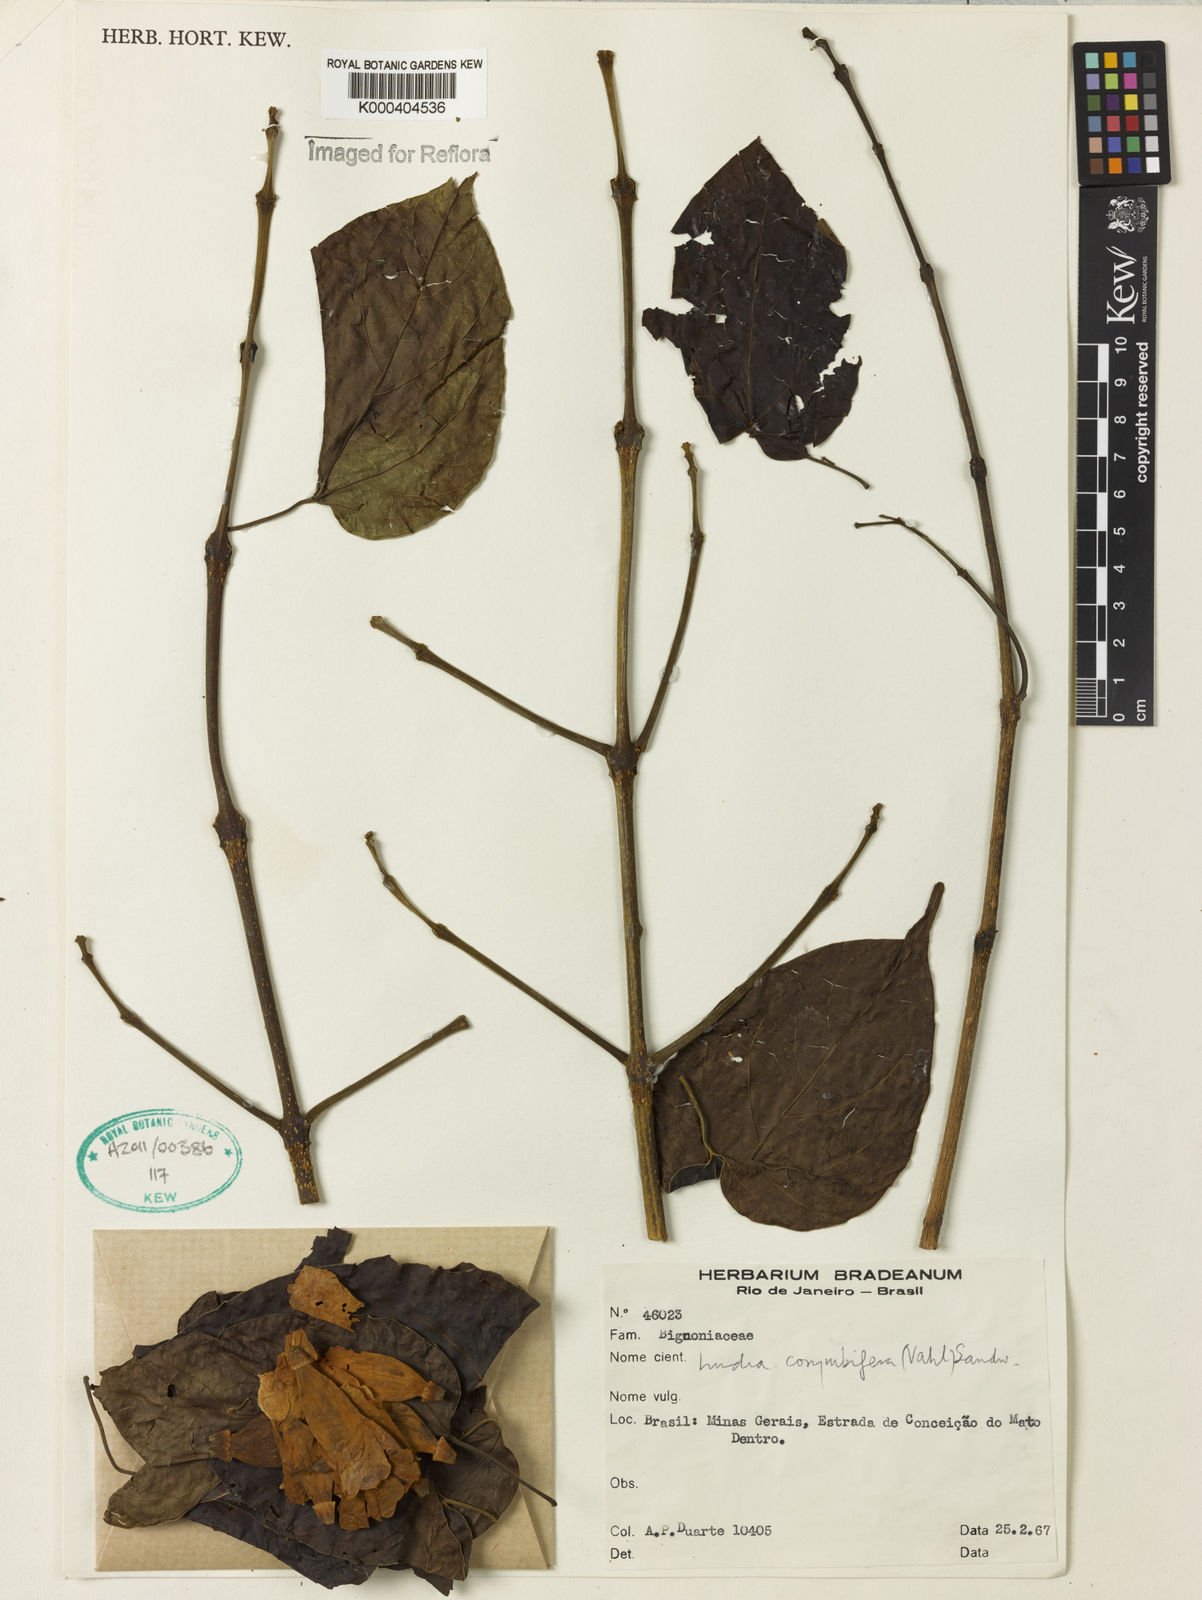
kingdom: Plantae
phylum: Tracheophyta
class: Magnoliopsida
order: Lamiales
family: Bignoniaceae
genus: Lundia
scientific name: Lundia corymbifera
